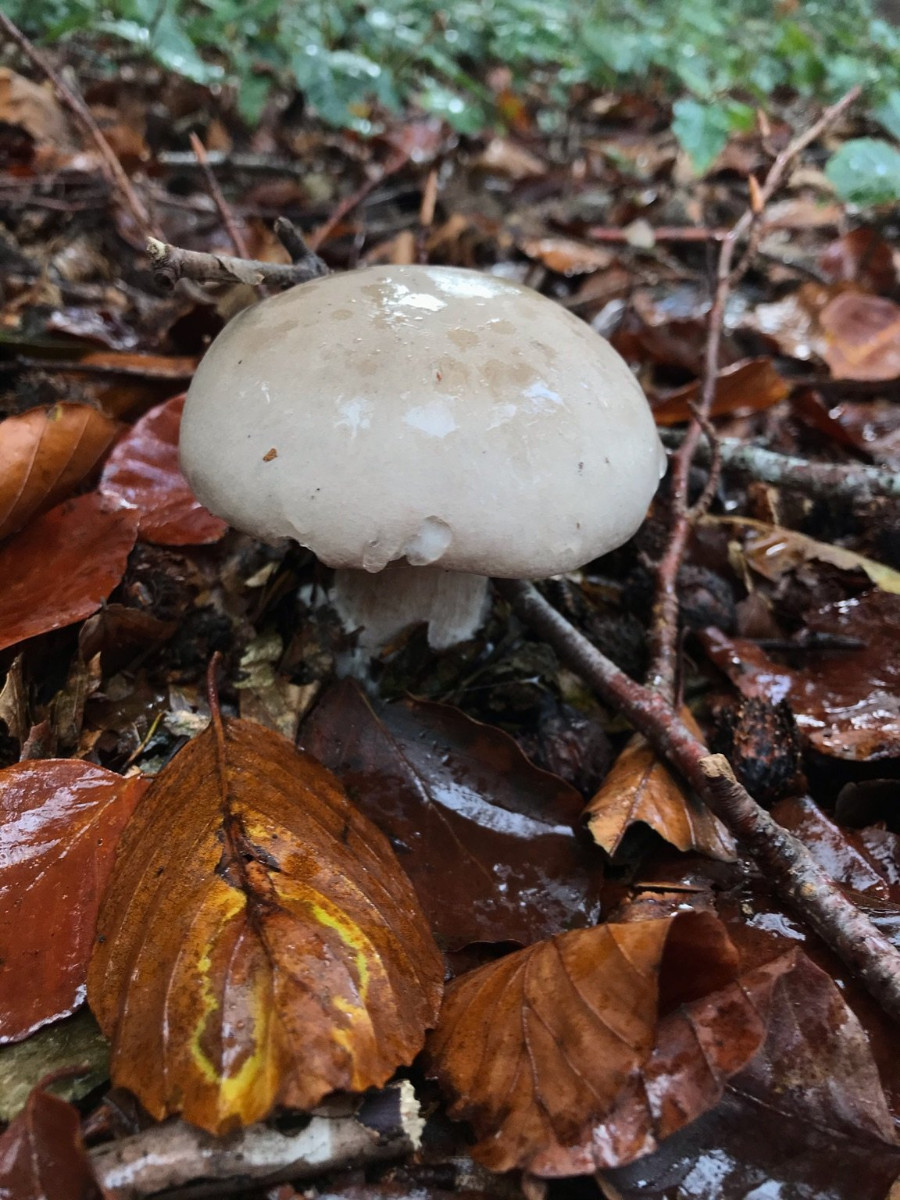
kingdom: Fungi
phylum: Basidiomycota
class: Agaricomycetes
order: Agaricales
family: Tricholomataceae
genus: Clitocybe
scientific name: Clitocybe nebularis
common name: tåge-tragthat
